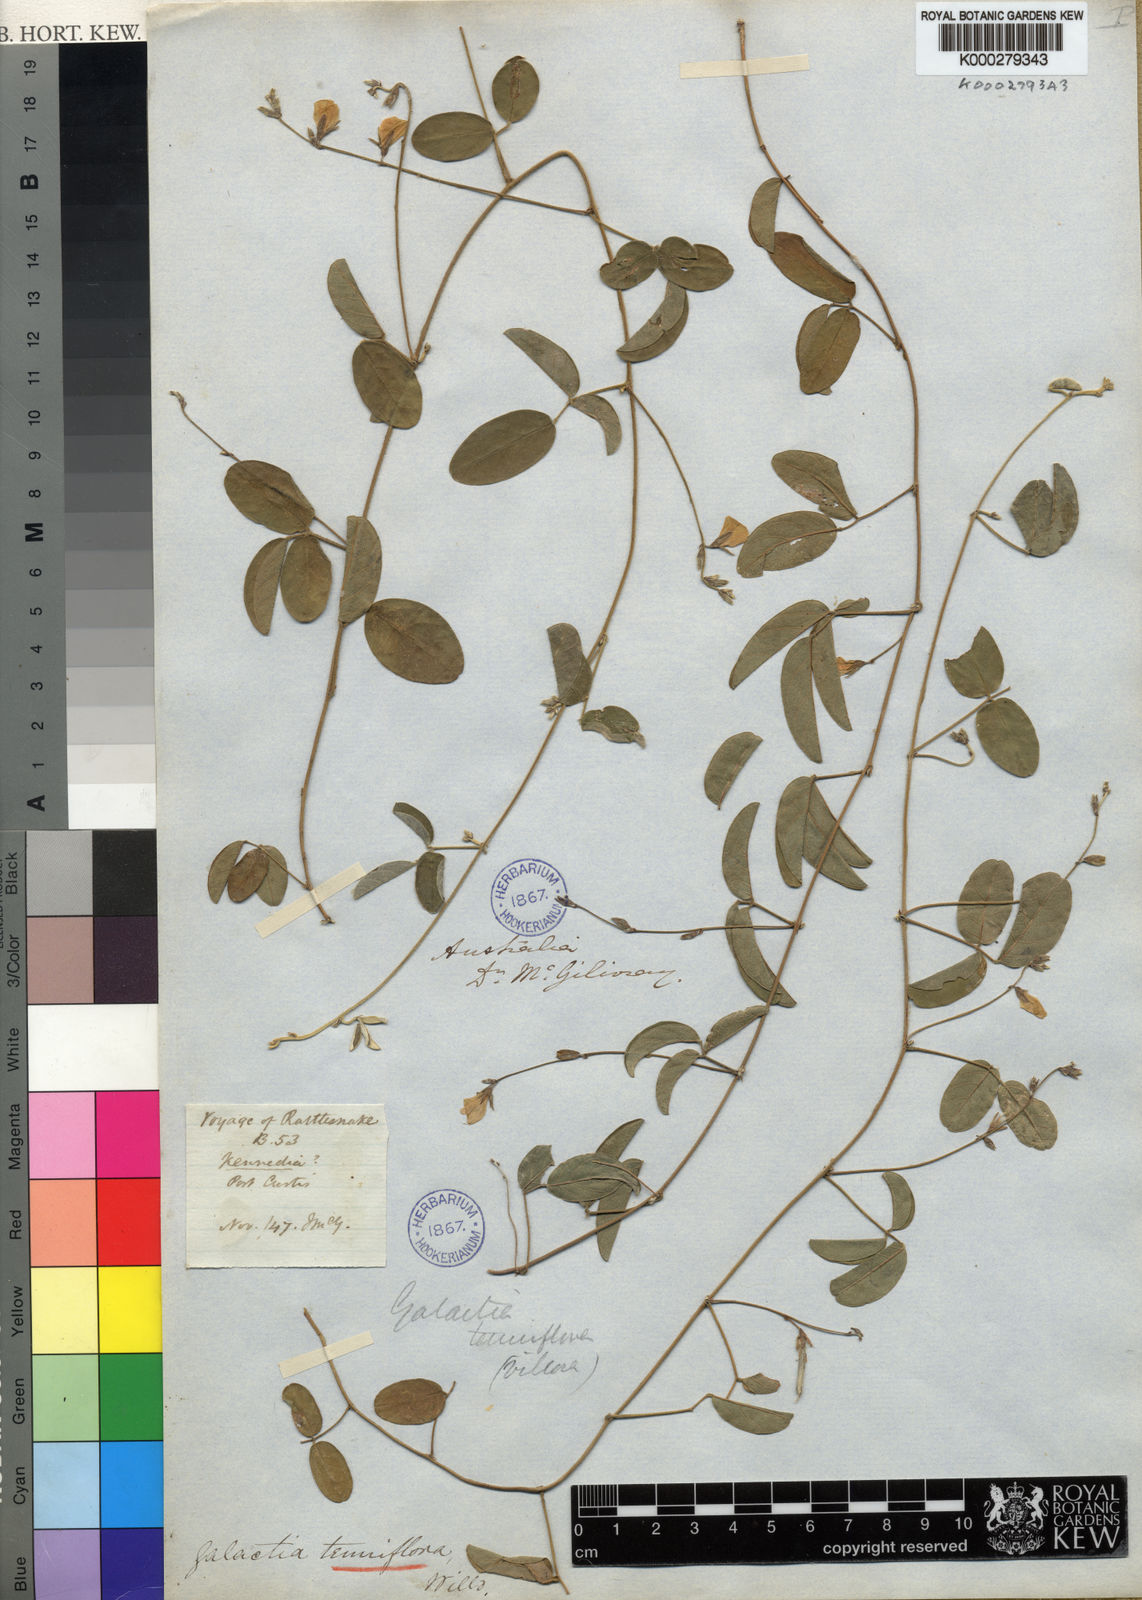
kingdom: Plantae
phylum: Tracheophyta
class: Magnoliopsida
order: Fabales
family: Fabaceae
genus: Galactia
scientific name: Galactia striata
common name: Florida hammock milkpea
